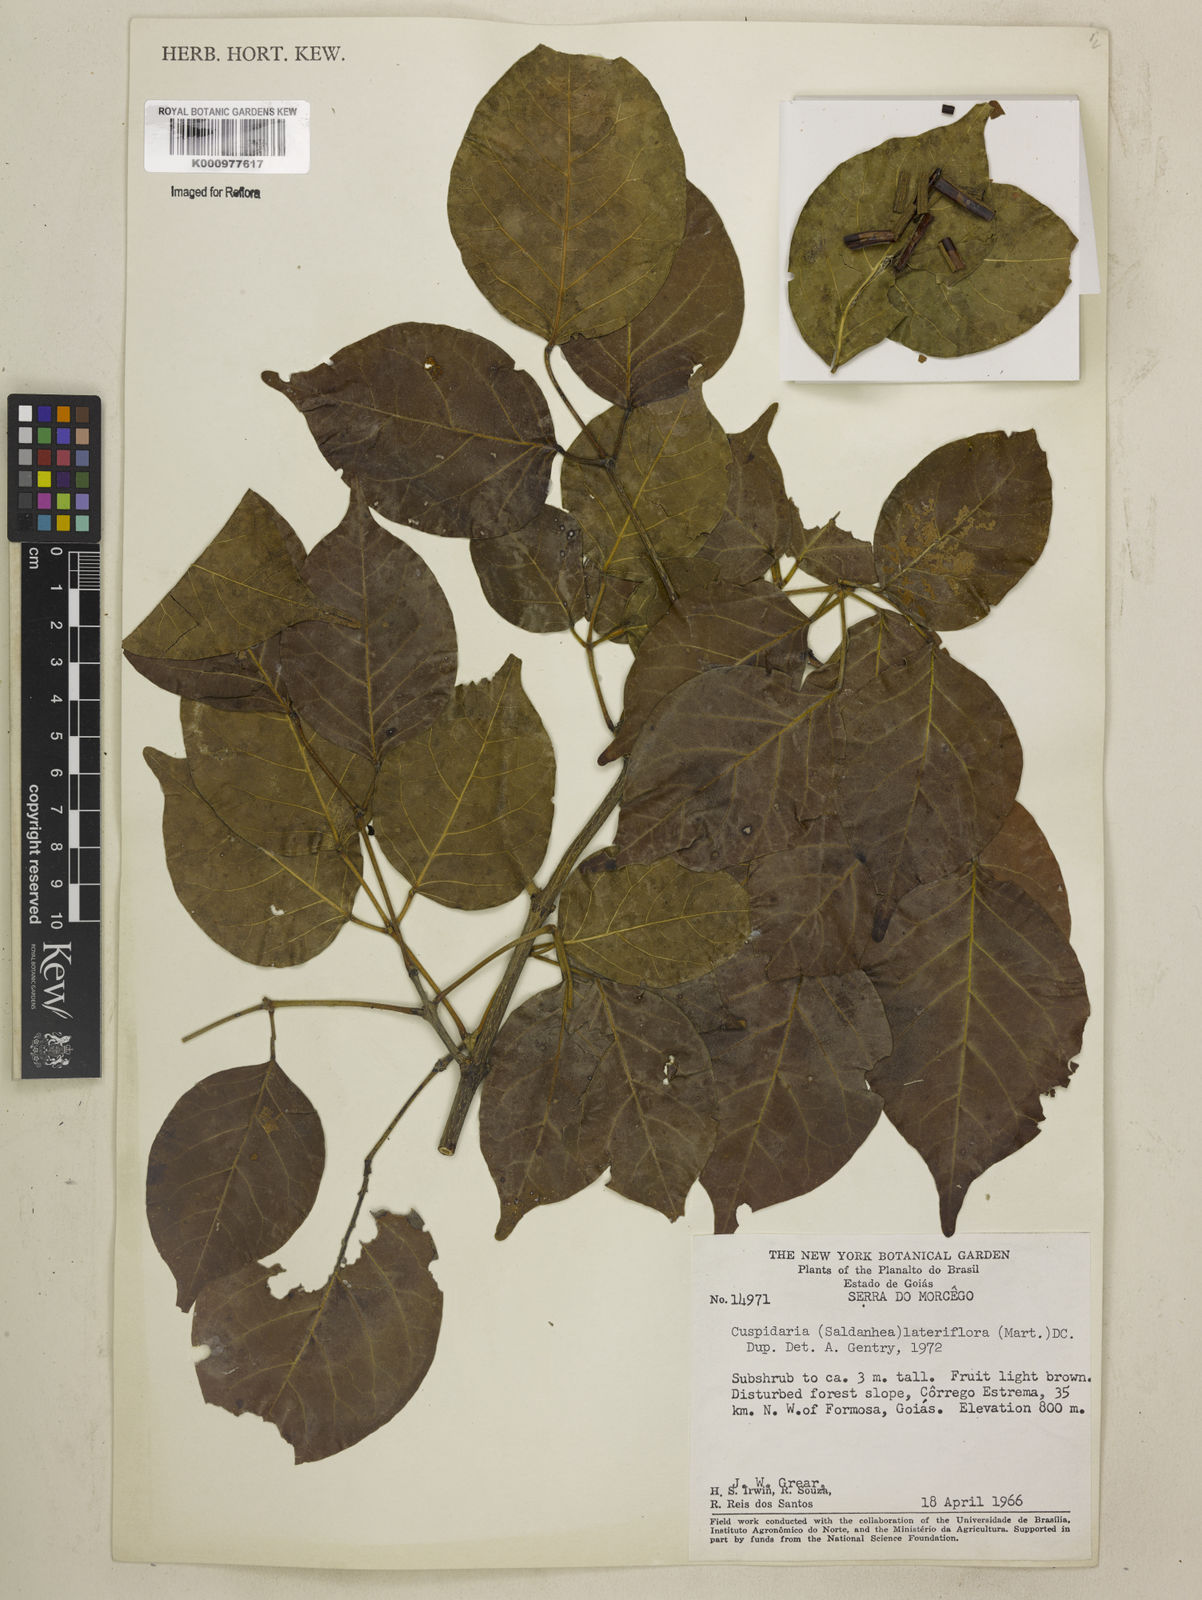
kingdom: Plantae
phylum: Tracheophyta
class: Magnoliopsida
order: Lamiales
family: Bignoniaceae
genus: Cuspidaria
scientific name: Cuspidaria lateriflora
